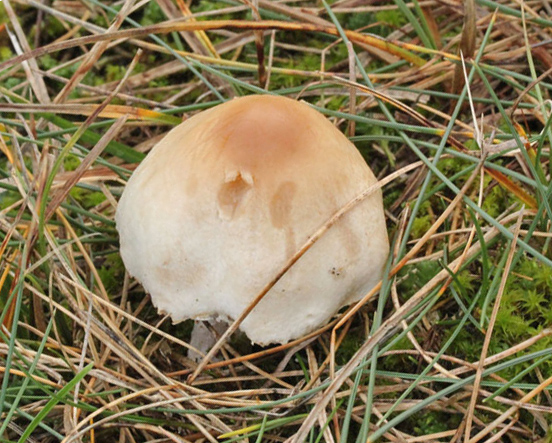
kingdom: Fungi
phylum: Basidiomycota
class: Agaricomycetes
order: Agaricales
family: Agaricaceae
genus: Lepiota
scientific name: Lepiota oreadiformis
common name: blegbrun parasolhat
